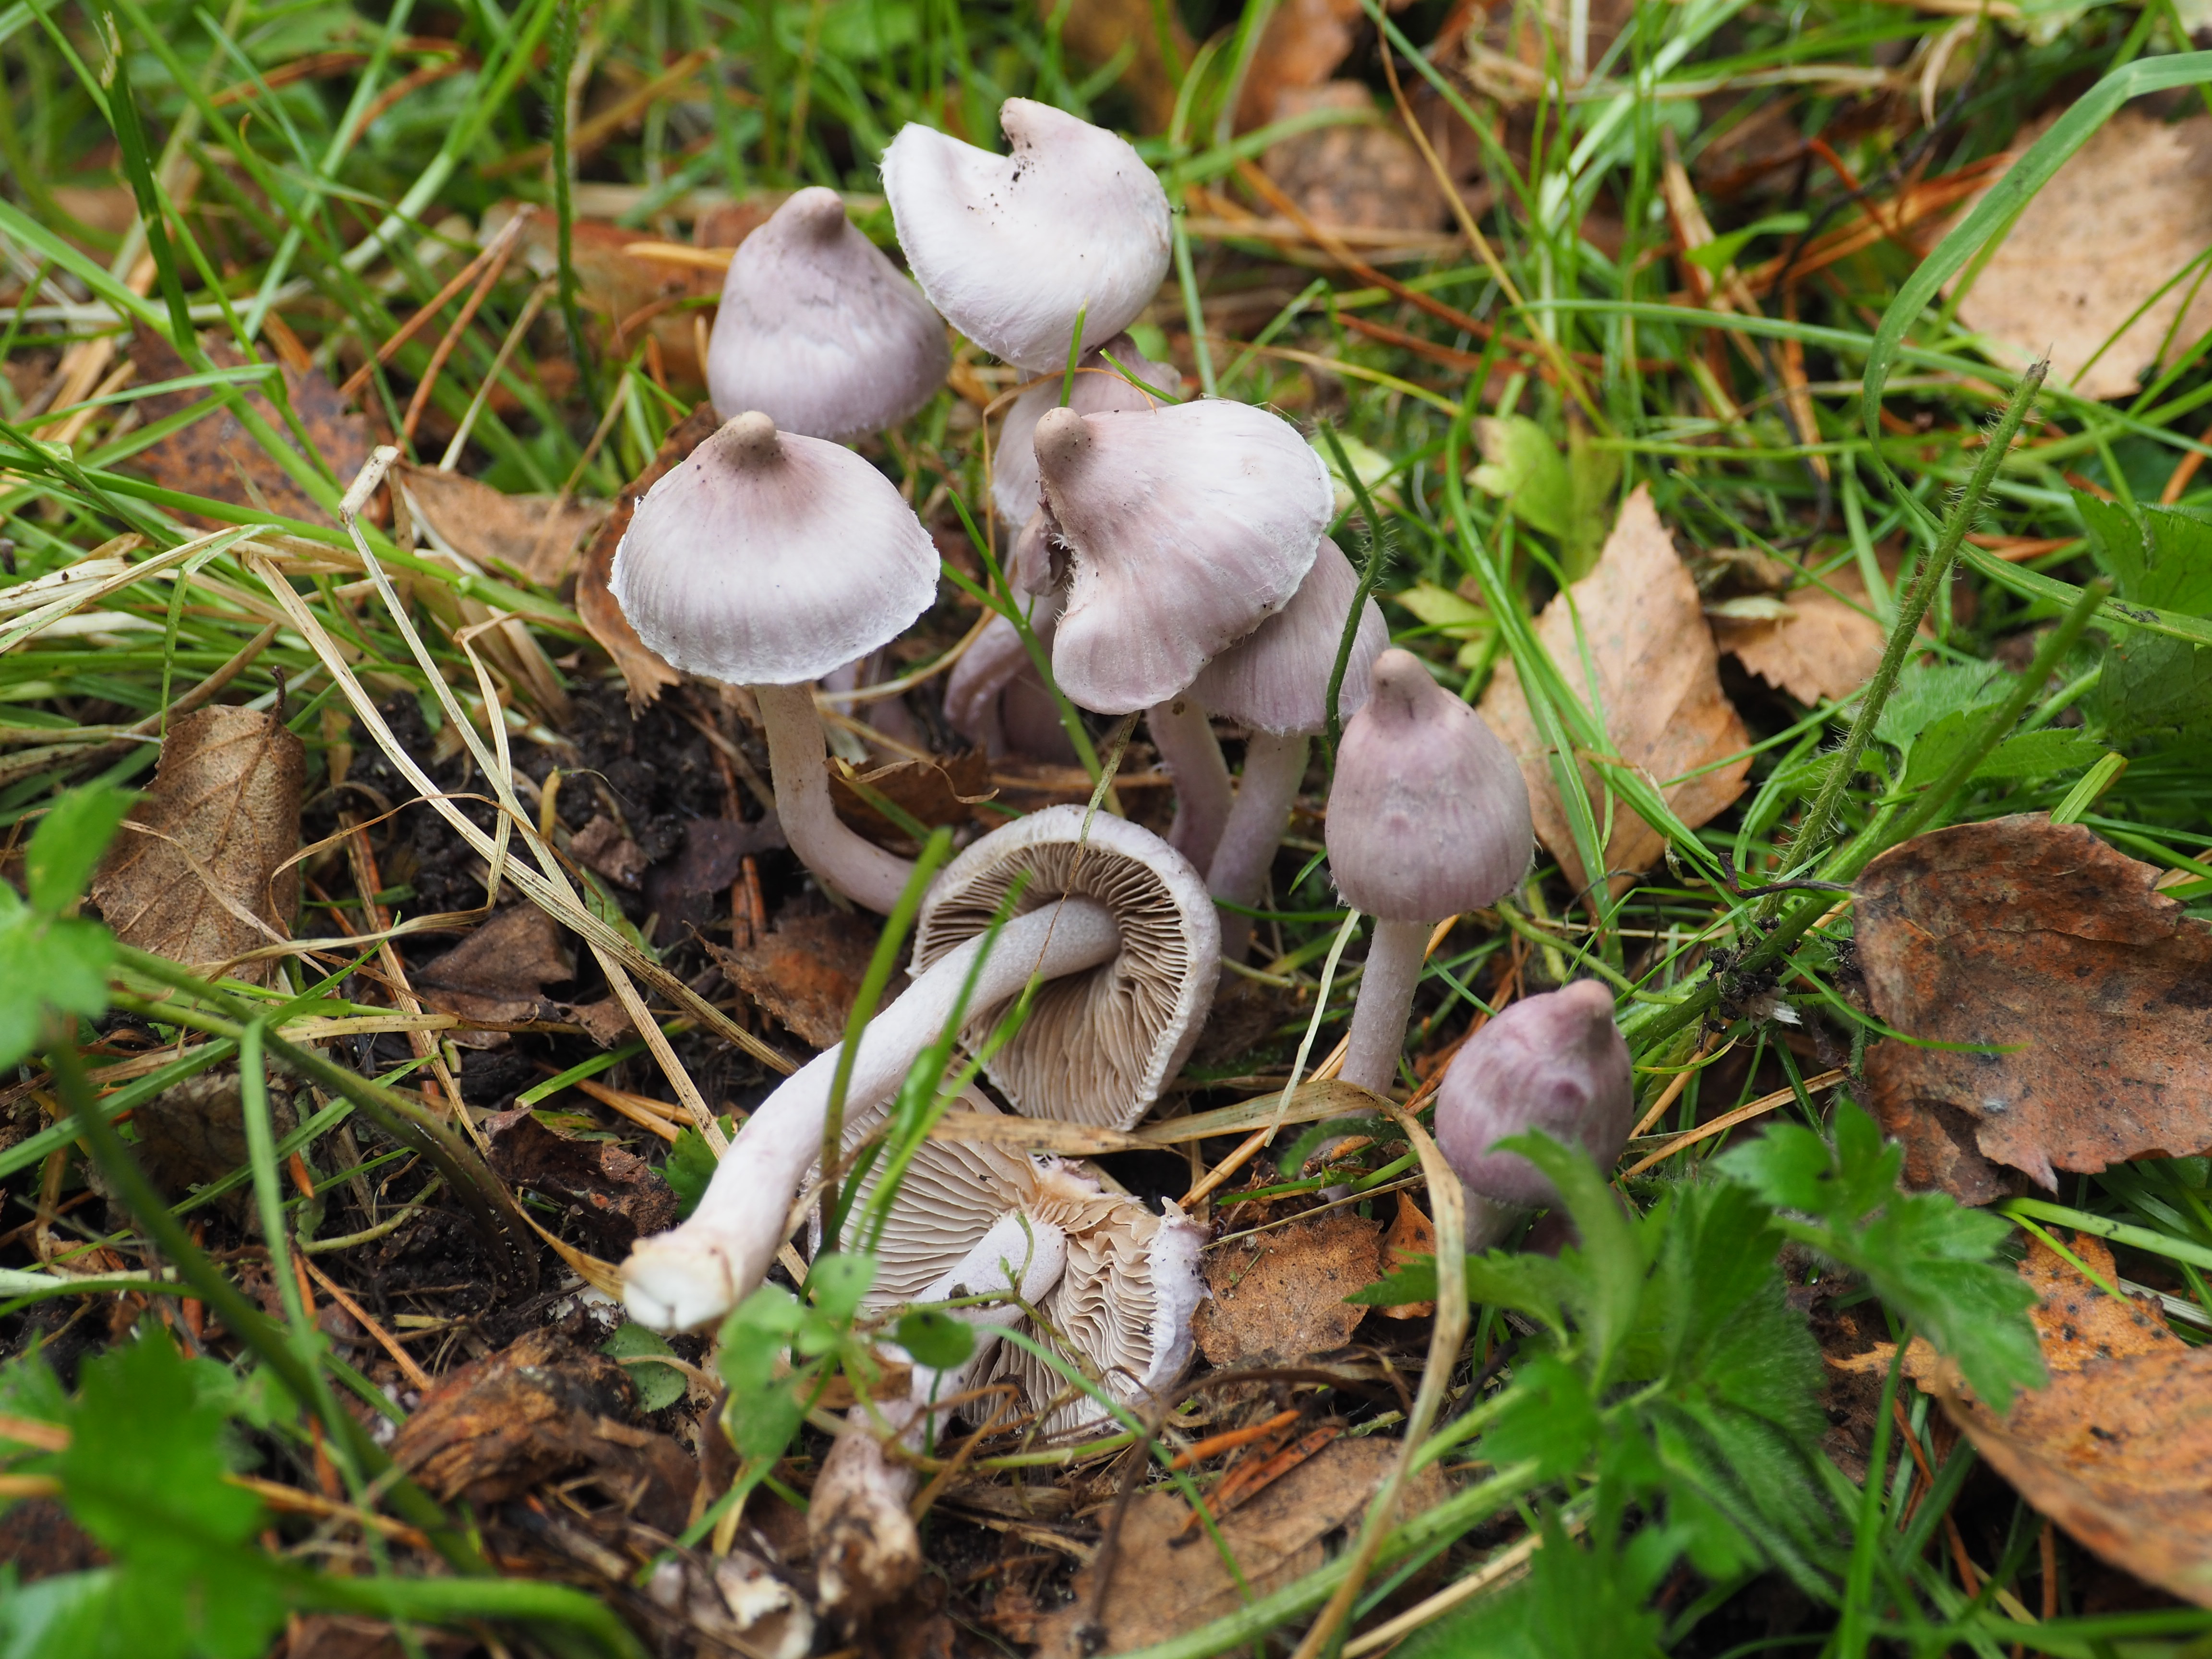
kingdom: Fungi
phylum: Basidiomycota
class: Agaricomycetes
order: Agaricales
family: Inocybaceae
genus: Inocybe
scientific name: Inocybe geophylla
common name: White fibrecap
